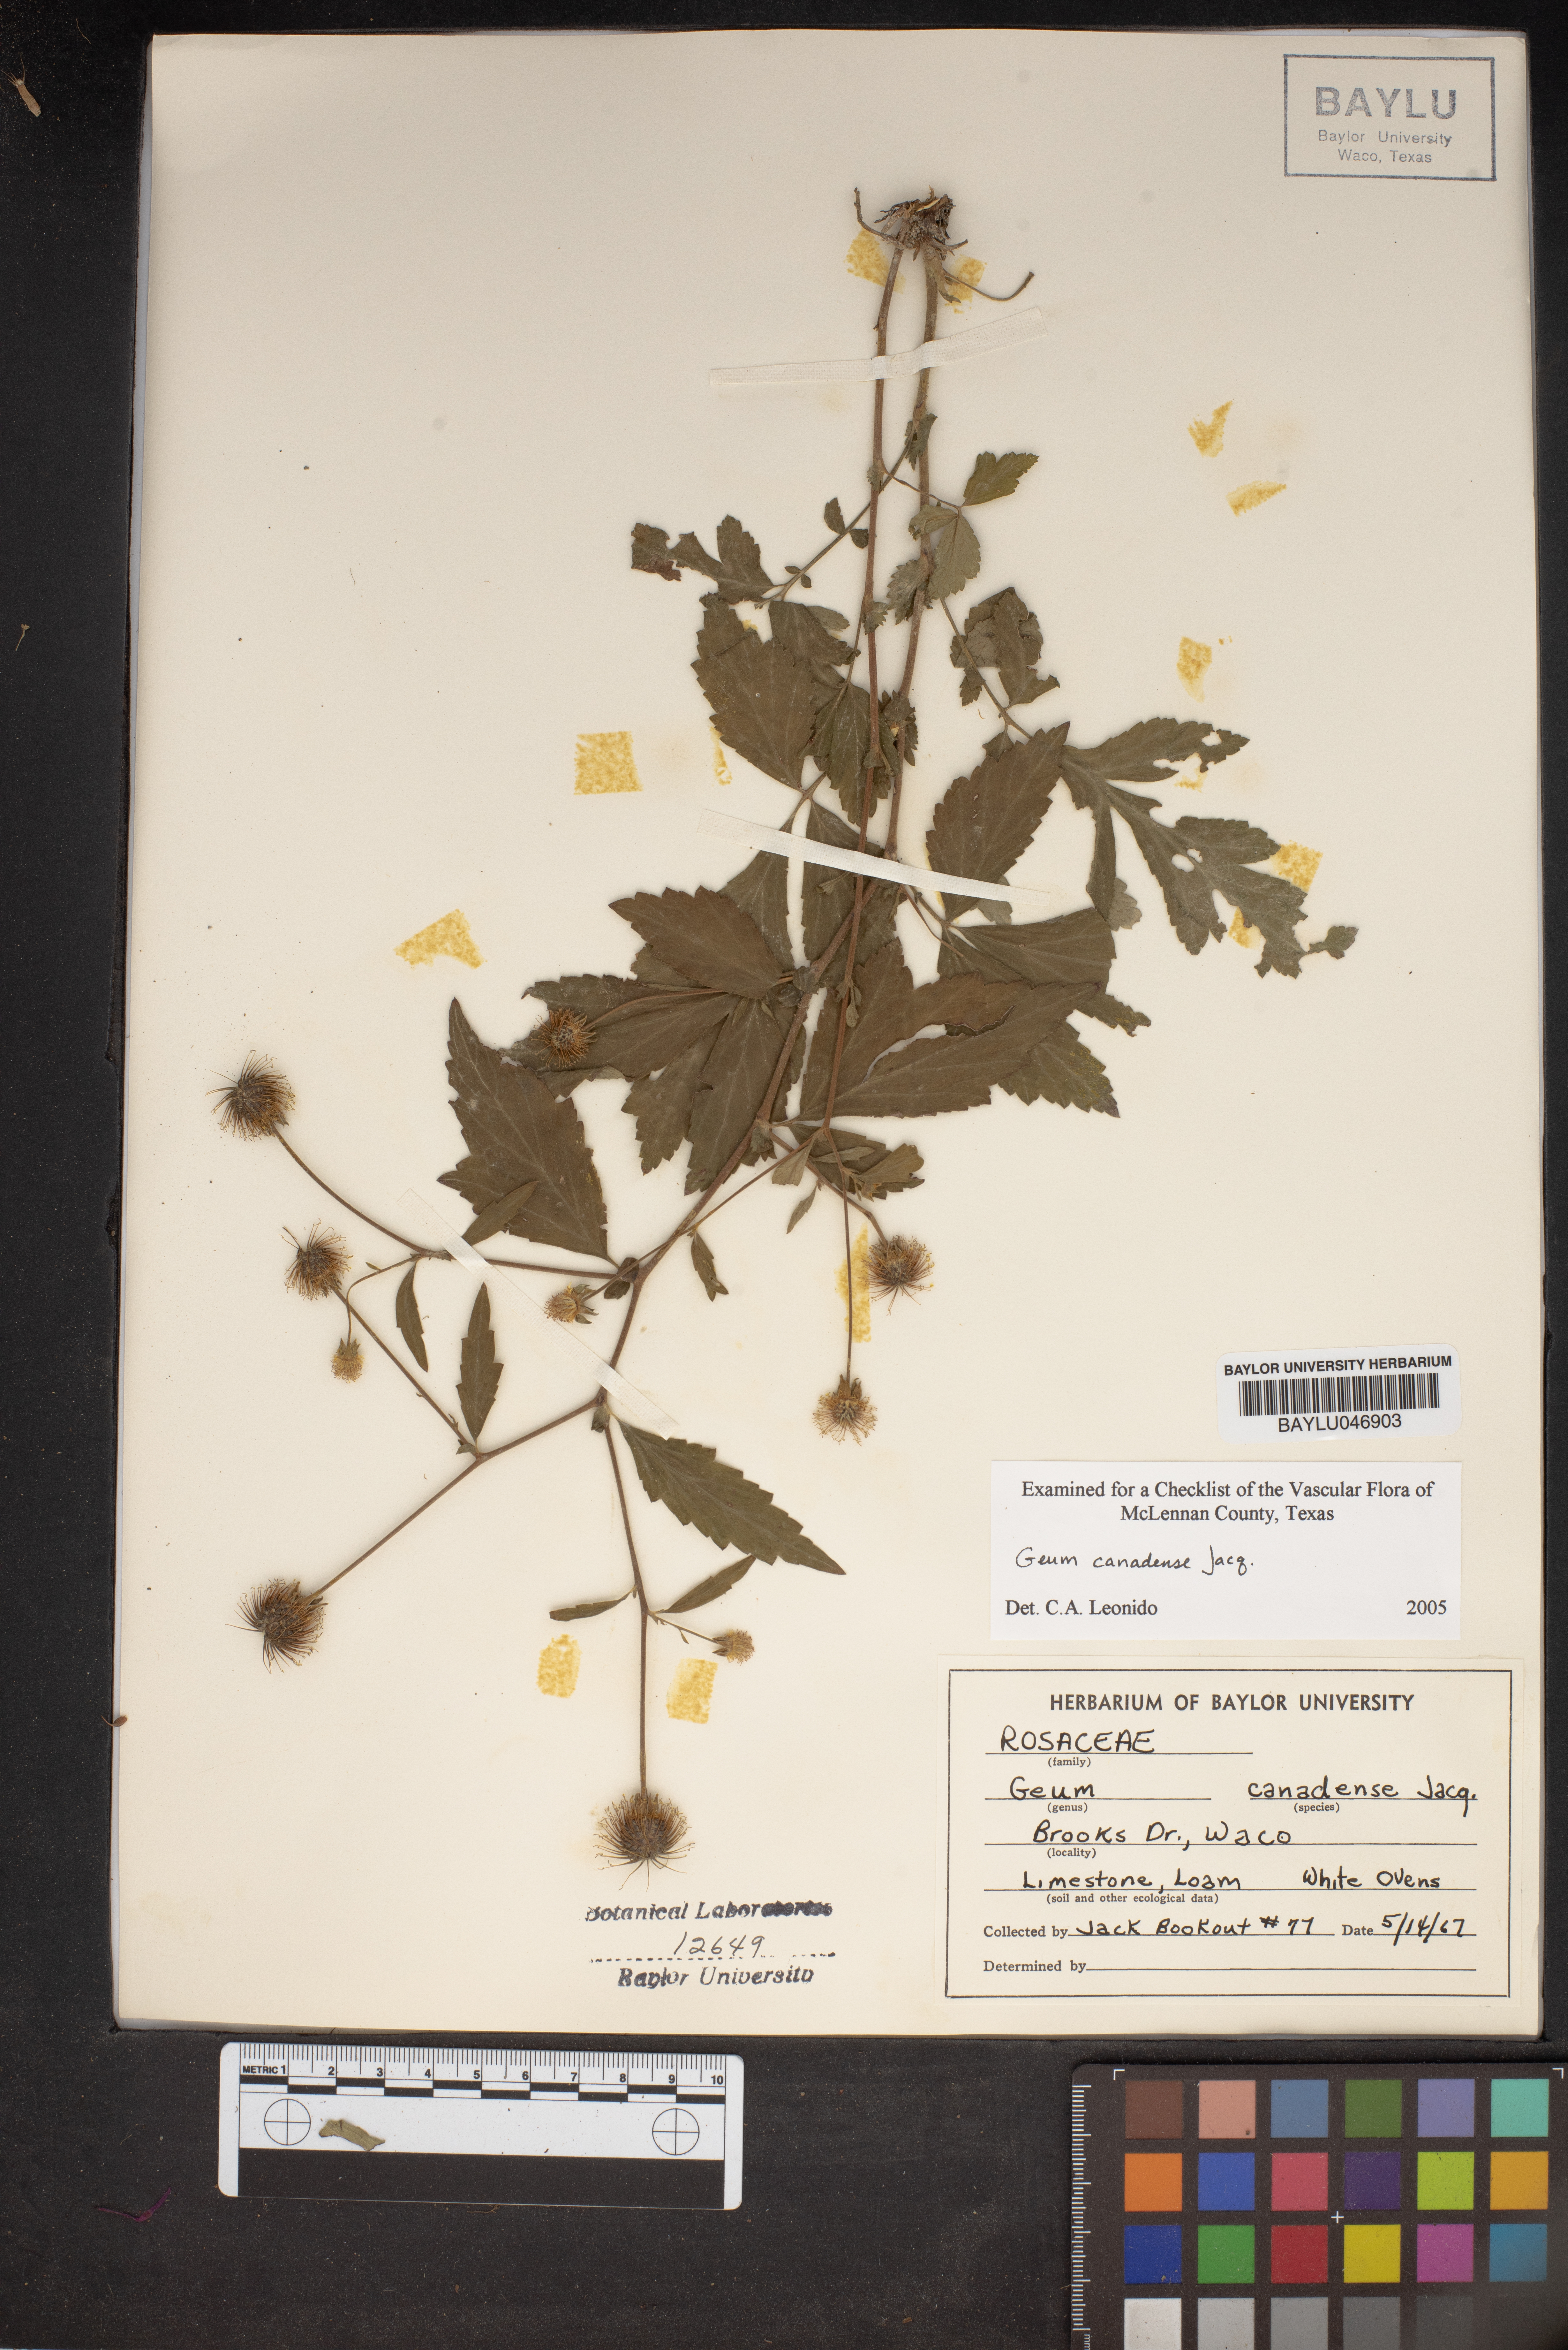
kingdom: Plantae
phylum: Tracheophyta
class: Magnoliopsida
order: Rosales
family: Rosaceae
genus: Geum
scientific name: Geum canadense
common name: White avens
